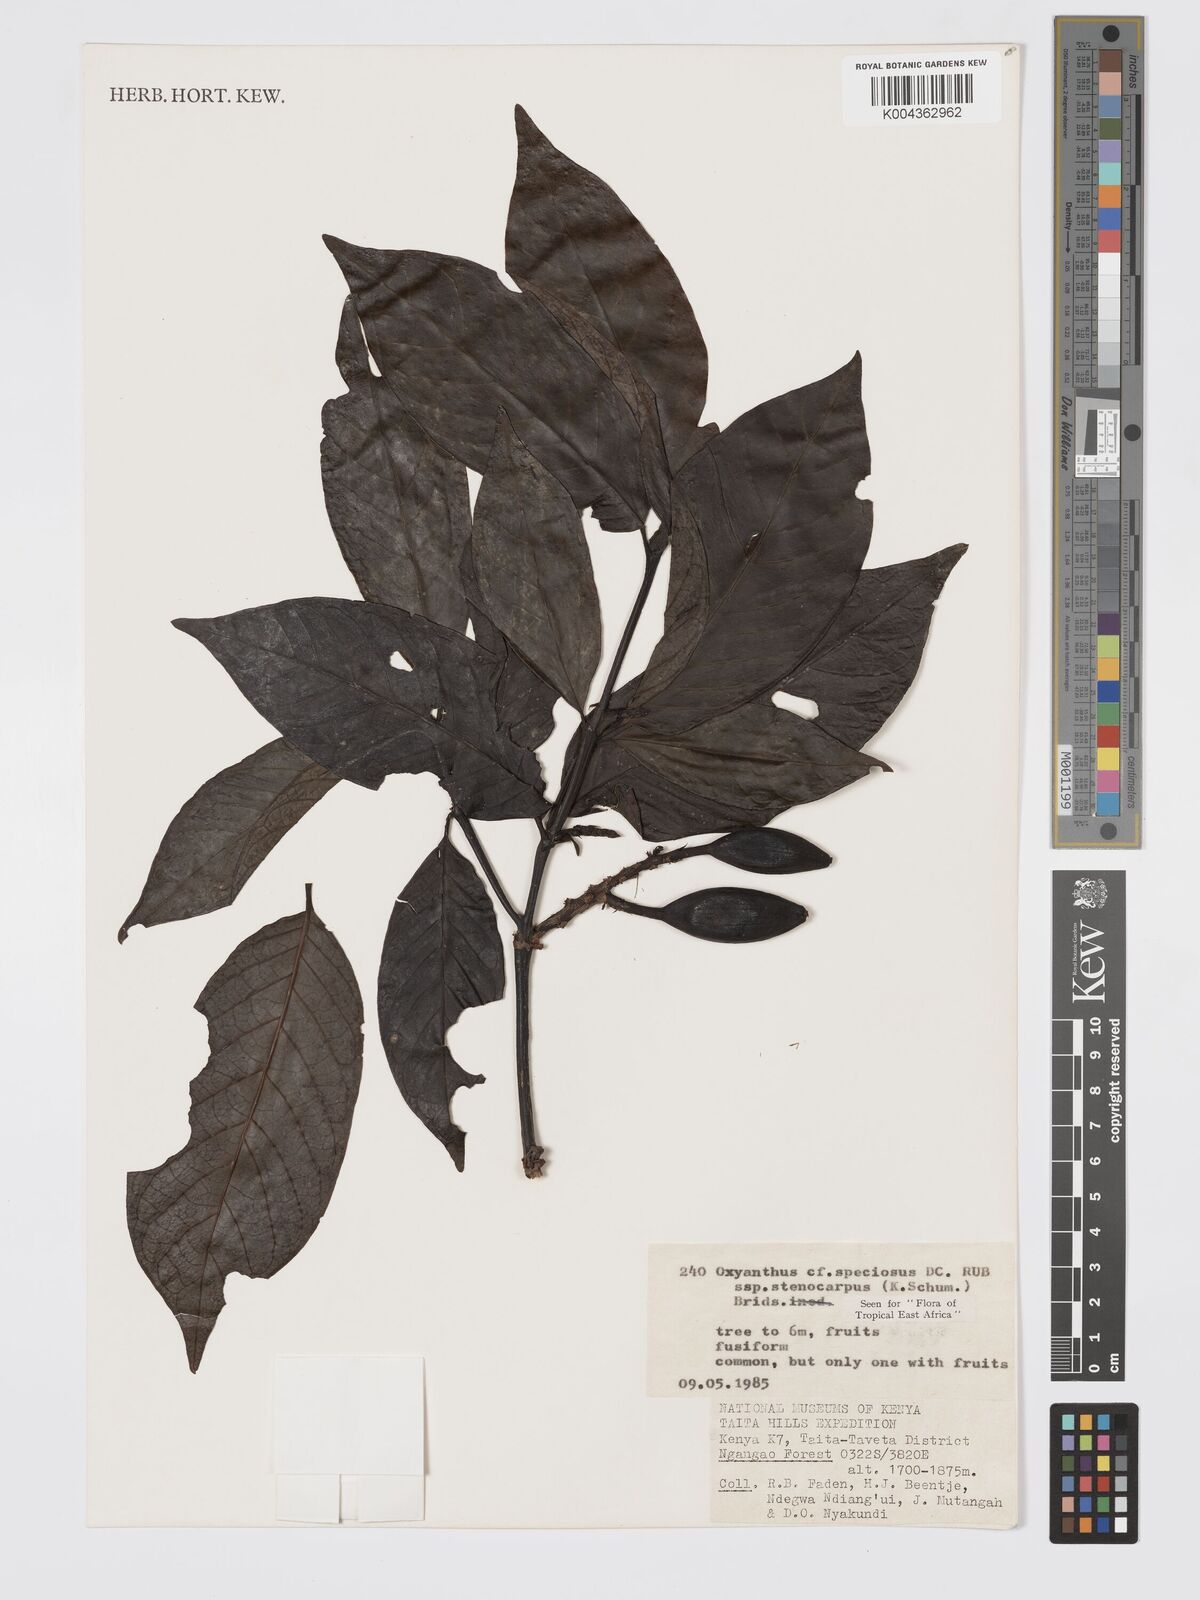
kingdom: Plantae
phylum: Tracheophyta
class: Magnoliopsida
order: Gentianales
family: Rubiaceae
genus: Oxyanthus
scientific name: Oxyanthus speciosus
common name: Whipstick loquat
